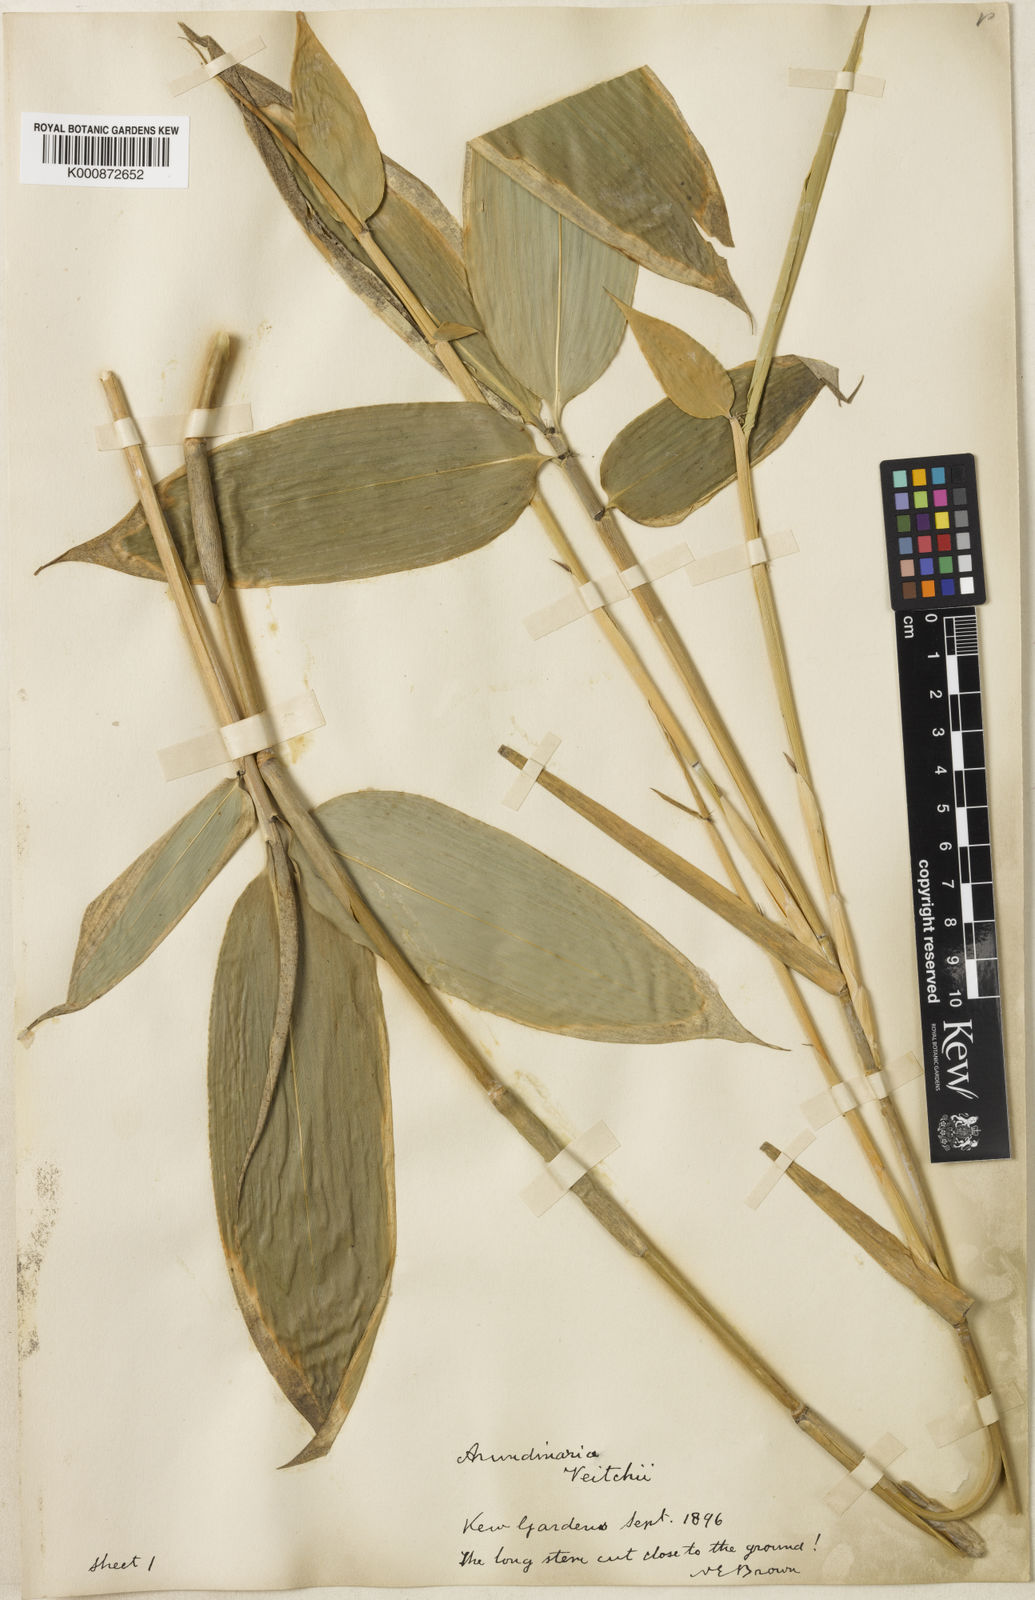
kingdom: Plantae
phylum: Tracheophyta
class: Liliopsida
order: Poales
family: Poaceae
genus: Sasa
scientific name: Sasa
